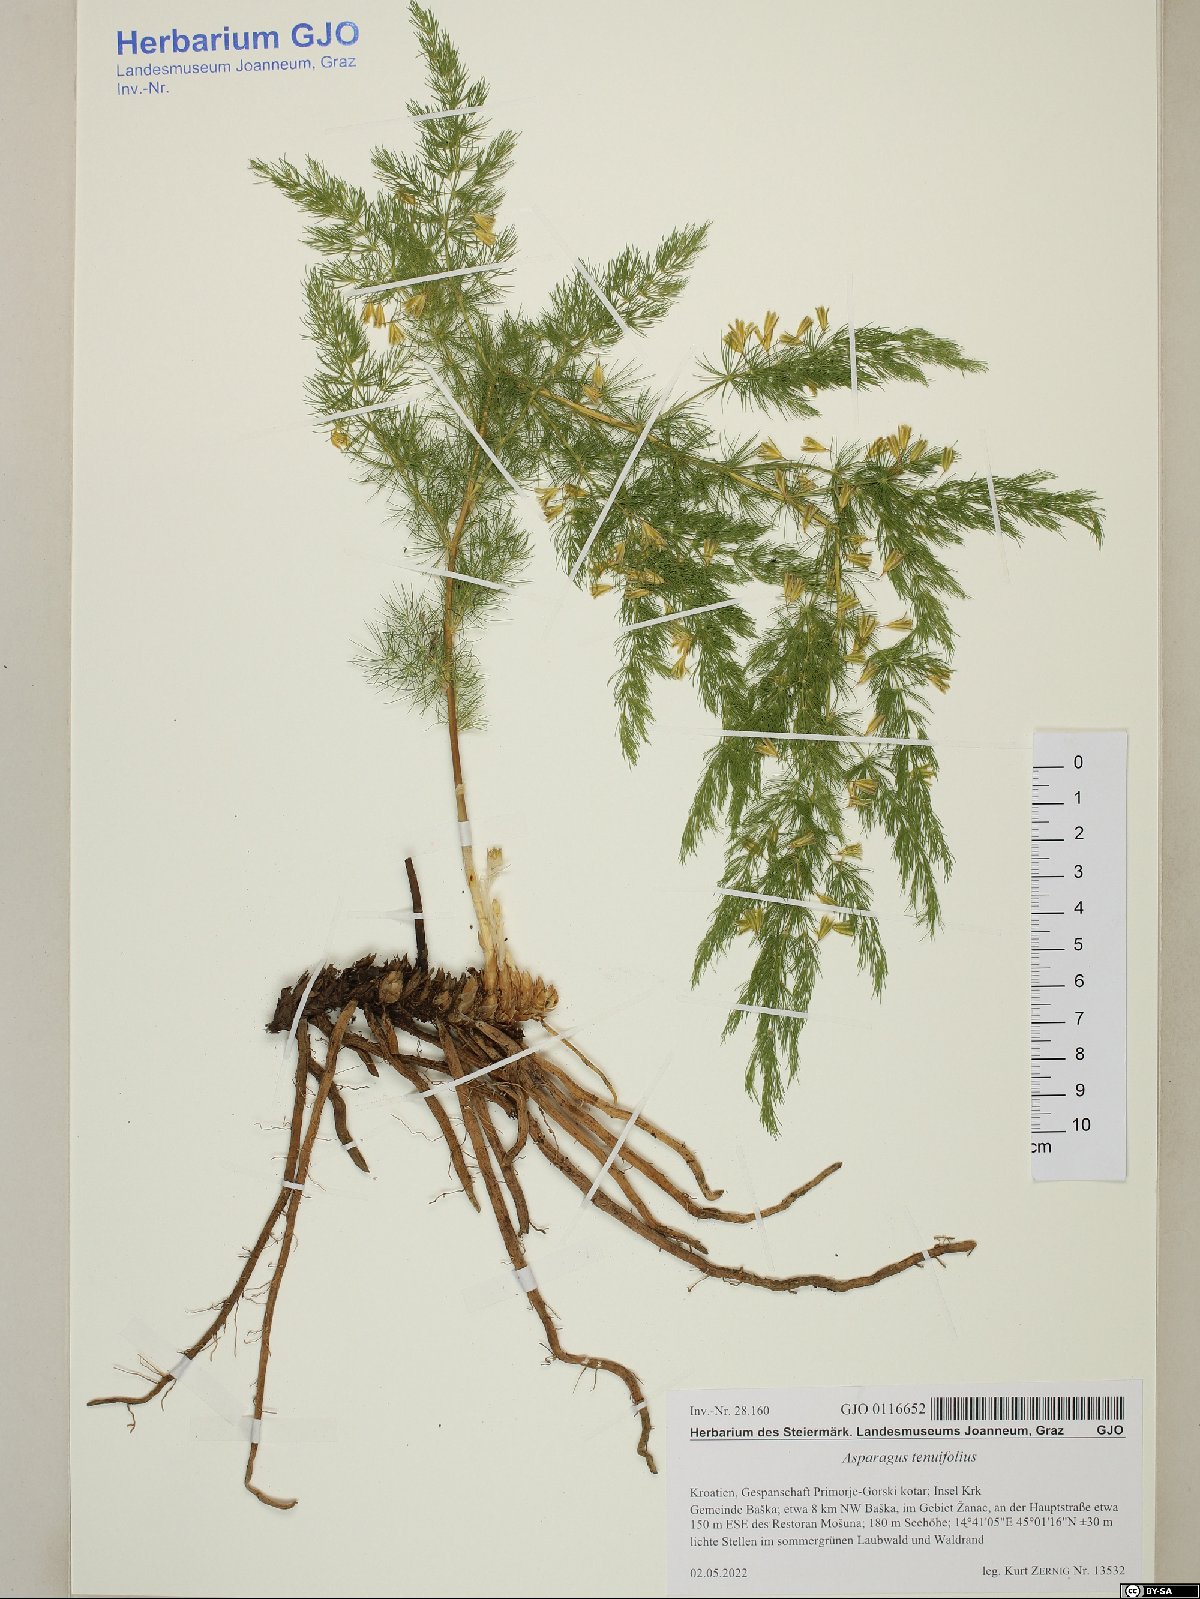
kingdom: Plantae
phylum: Tracheophyta
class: Liliopsida
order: Asparagales
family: Asparagaceae
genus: Asparagus
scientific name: Asparagus tenuifolius
